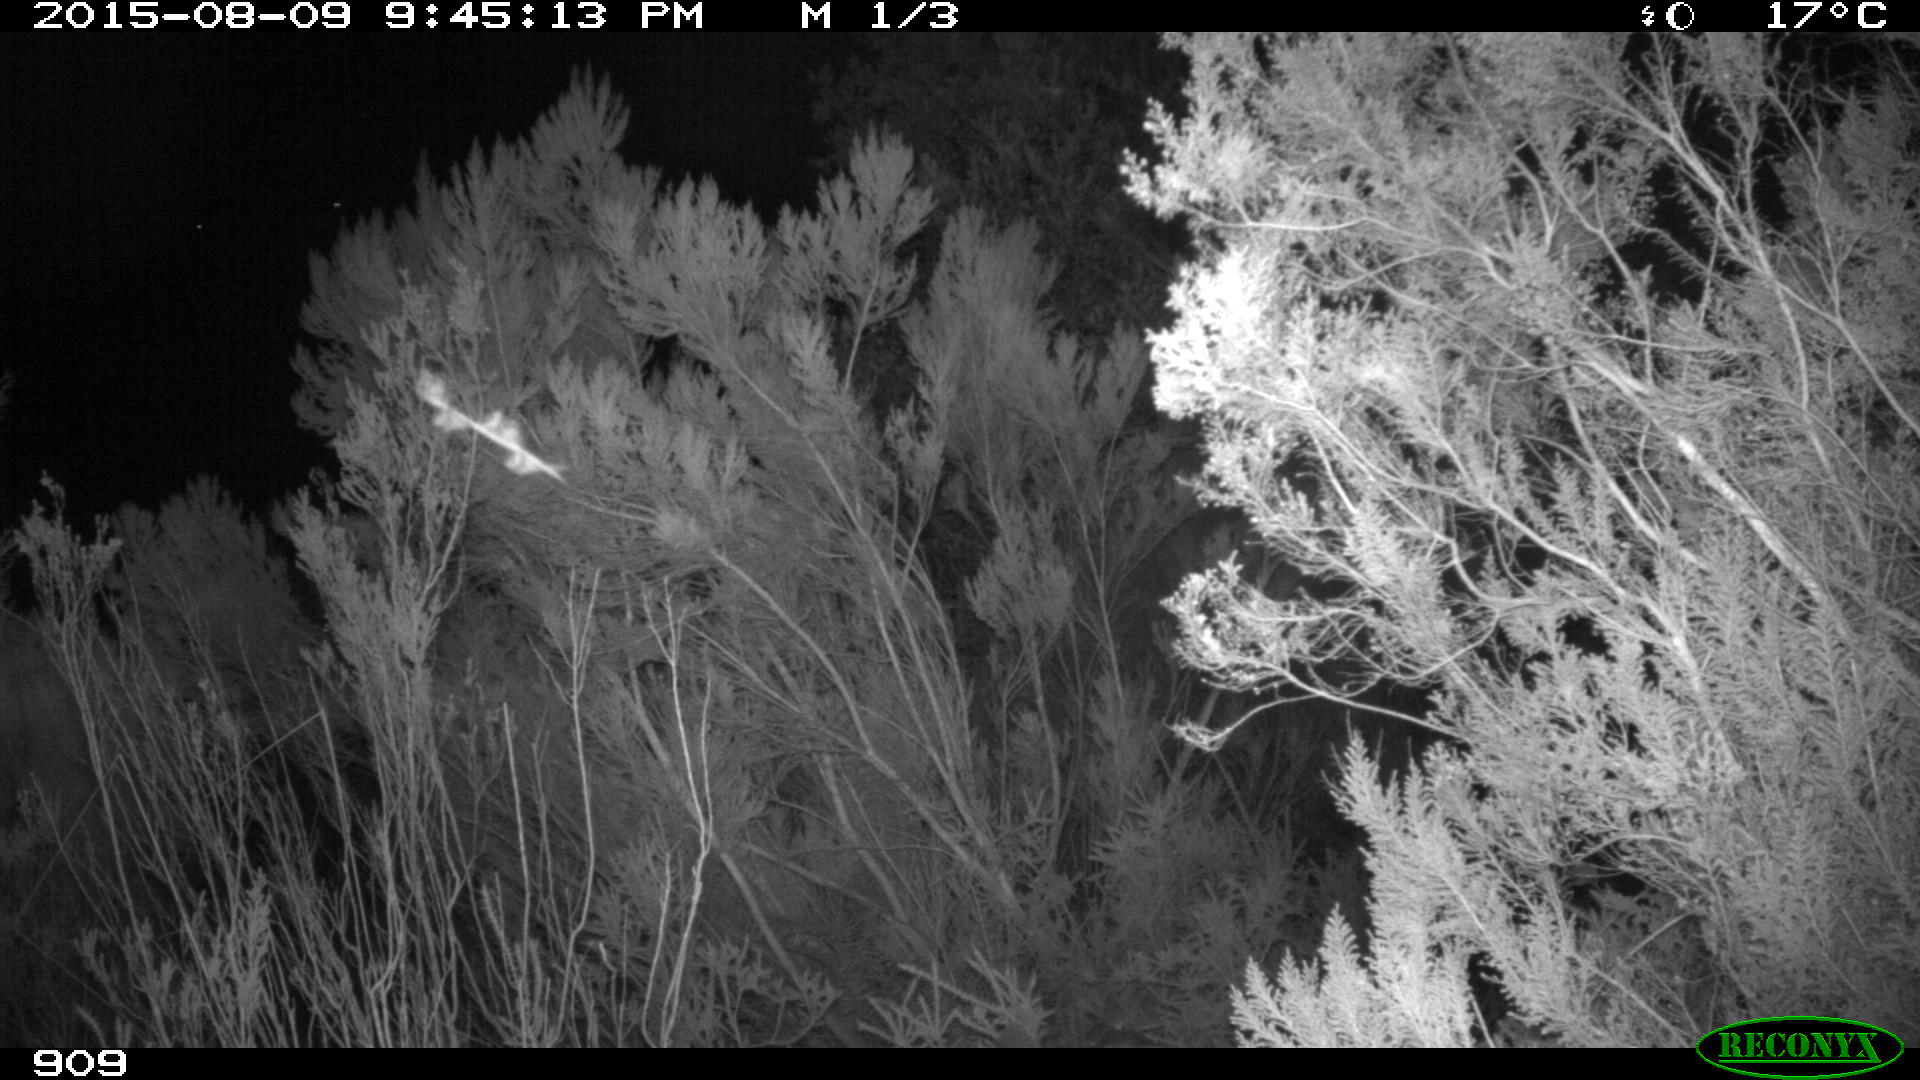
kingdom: Animalia
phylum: Chordata
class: Mammalia
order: Artiodactyla
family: Cervidae
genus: Capreolus
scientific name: Capreolus capreolus
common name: Western roe deer
